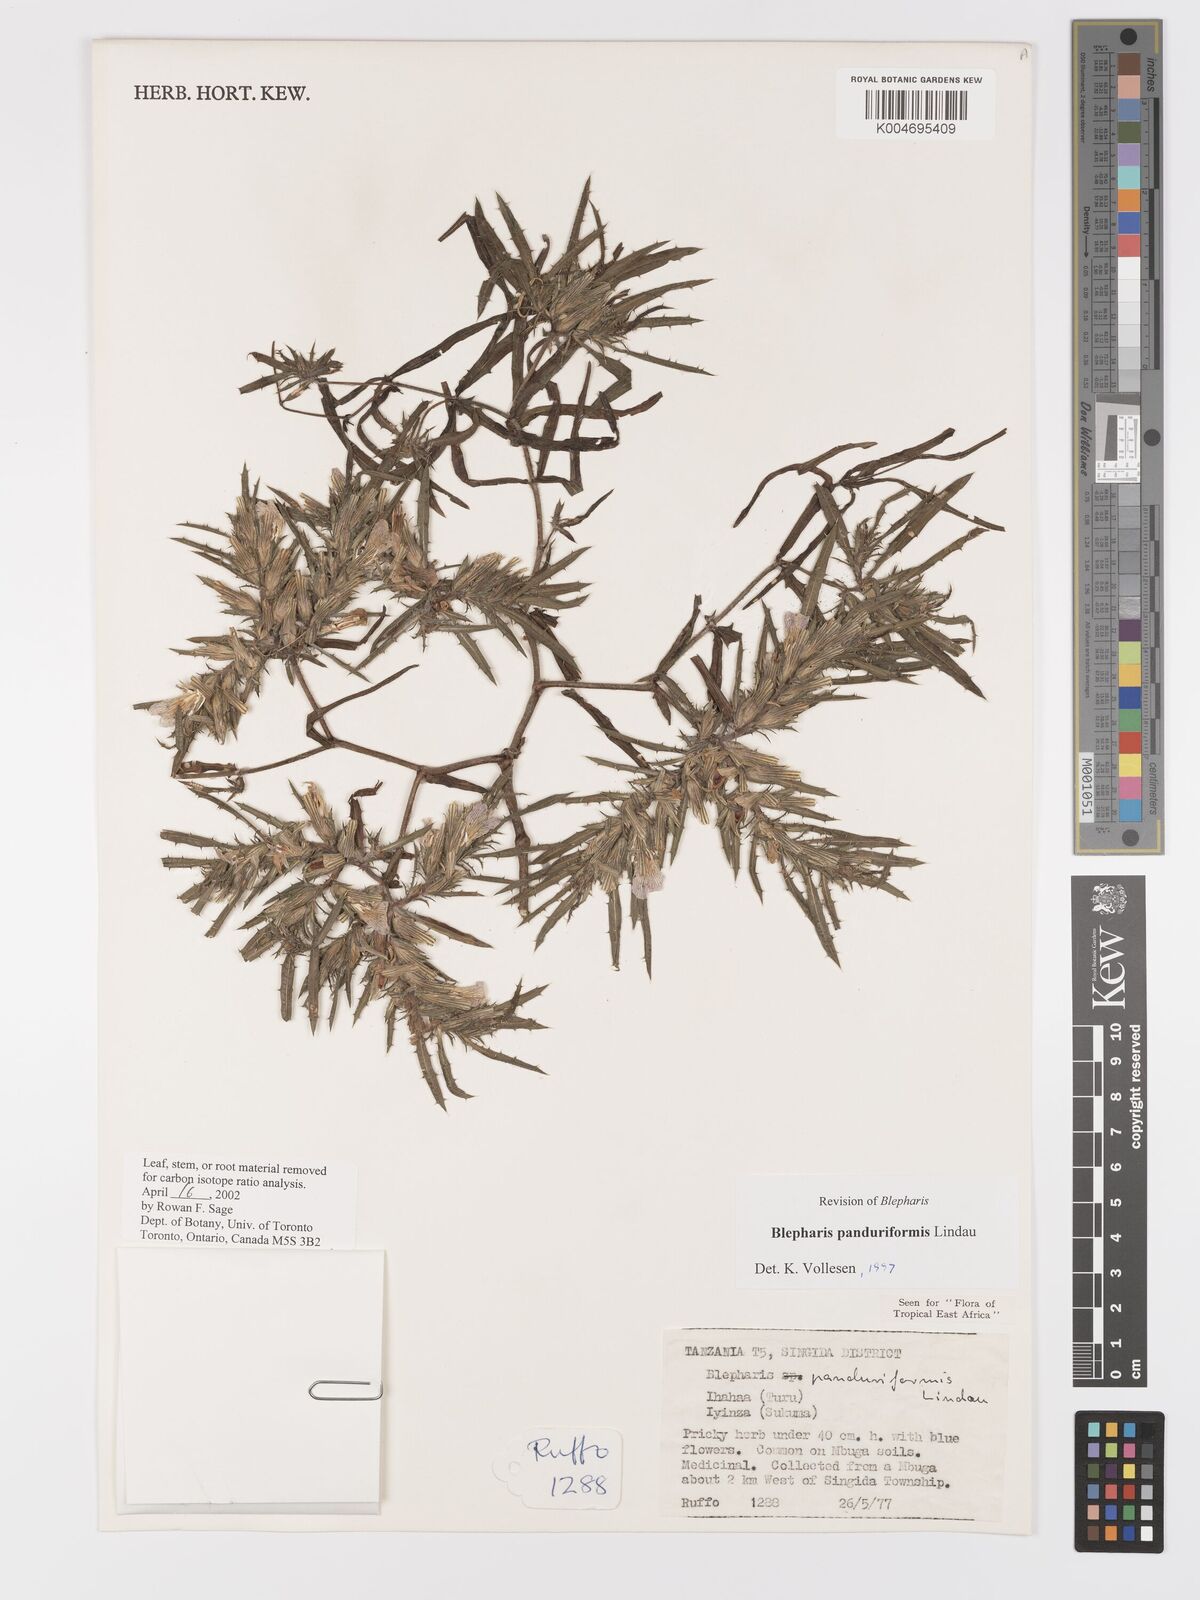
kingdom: Plantae
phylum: Tracheophyta
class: Magnoliopsida
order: Lamiales
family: Acanthaceae
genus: Blepharis
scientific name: Blepharis panduriformis
